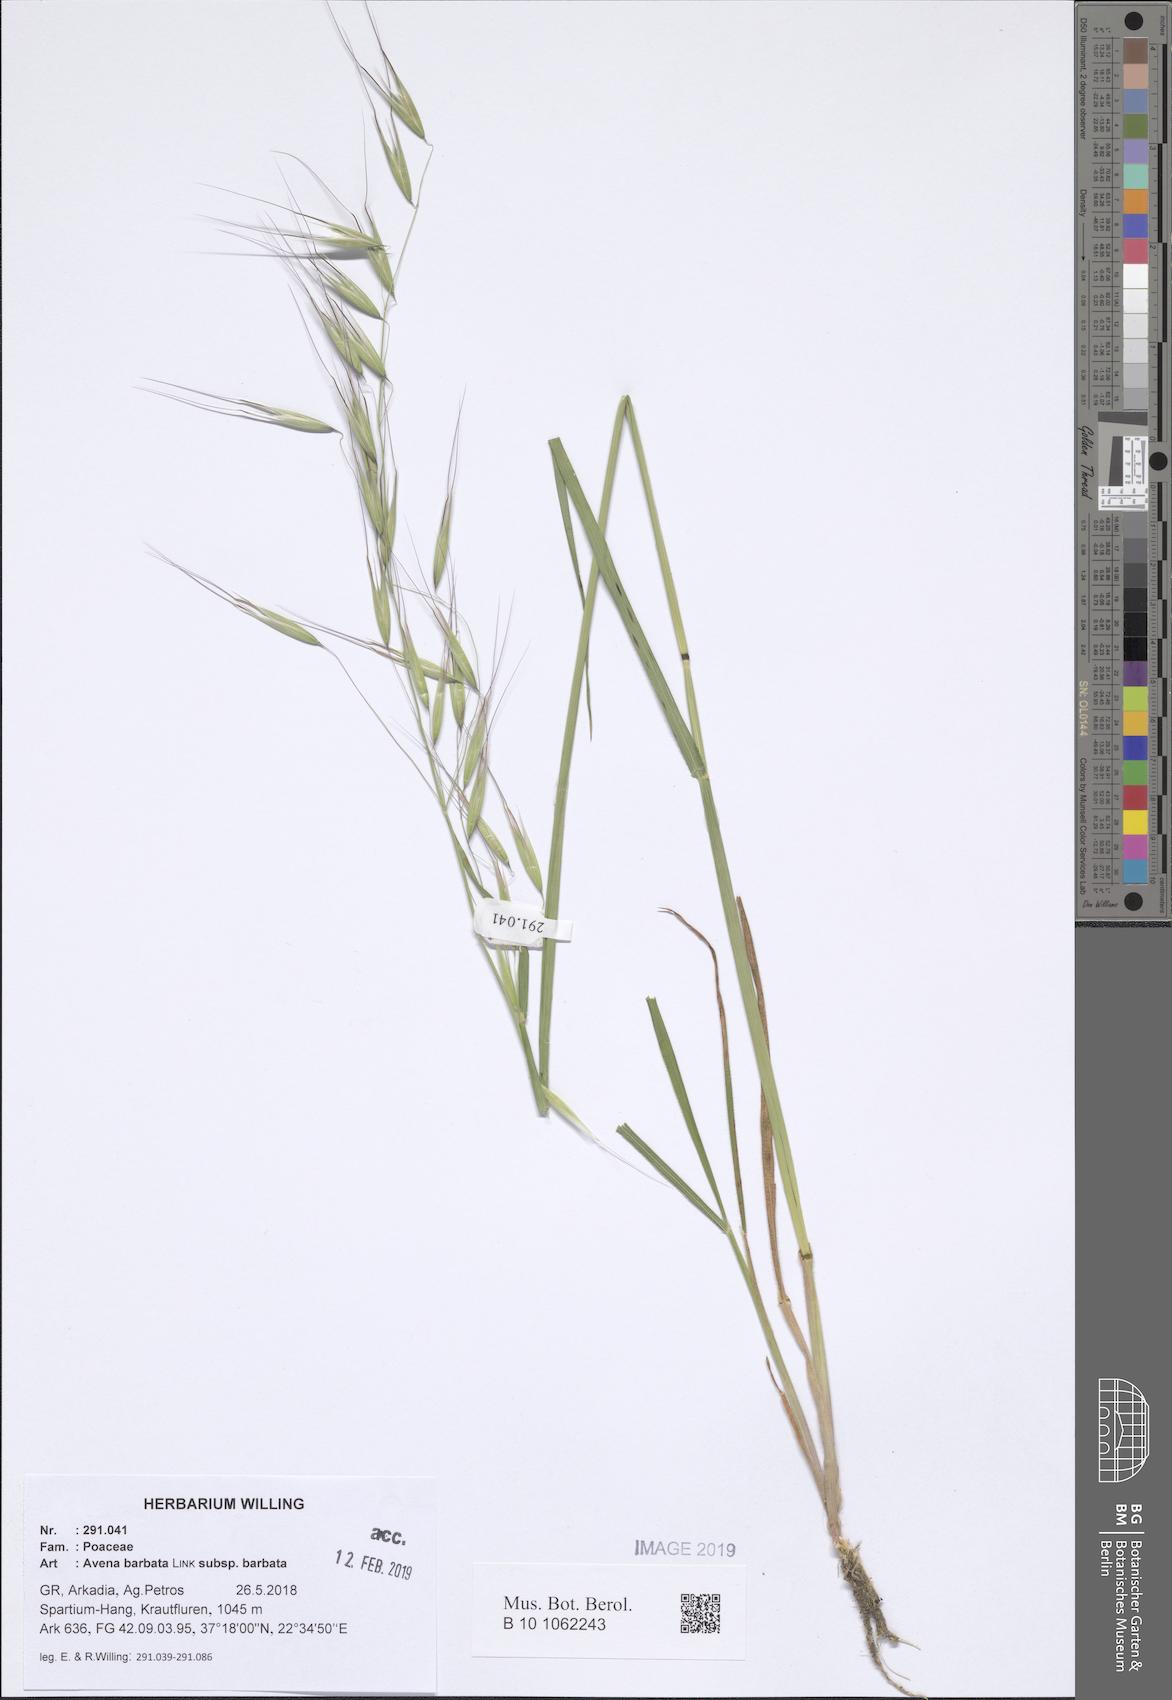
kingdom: Plantae
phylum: Tracheophyta
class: Liliopsida
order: Poales
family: Poaceae
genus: Avena
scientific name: Avena barbata
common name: Slender oat
